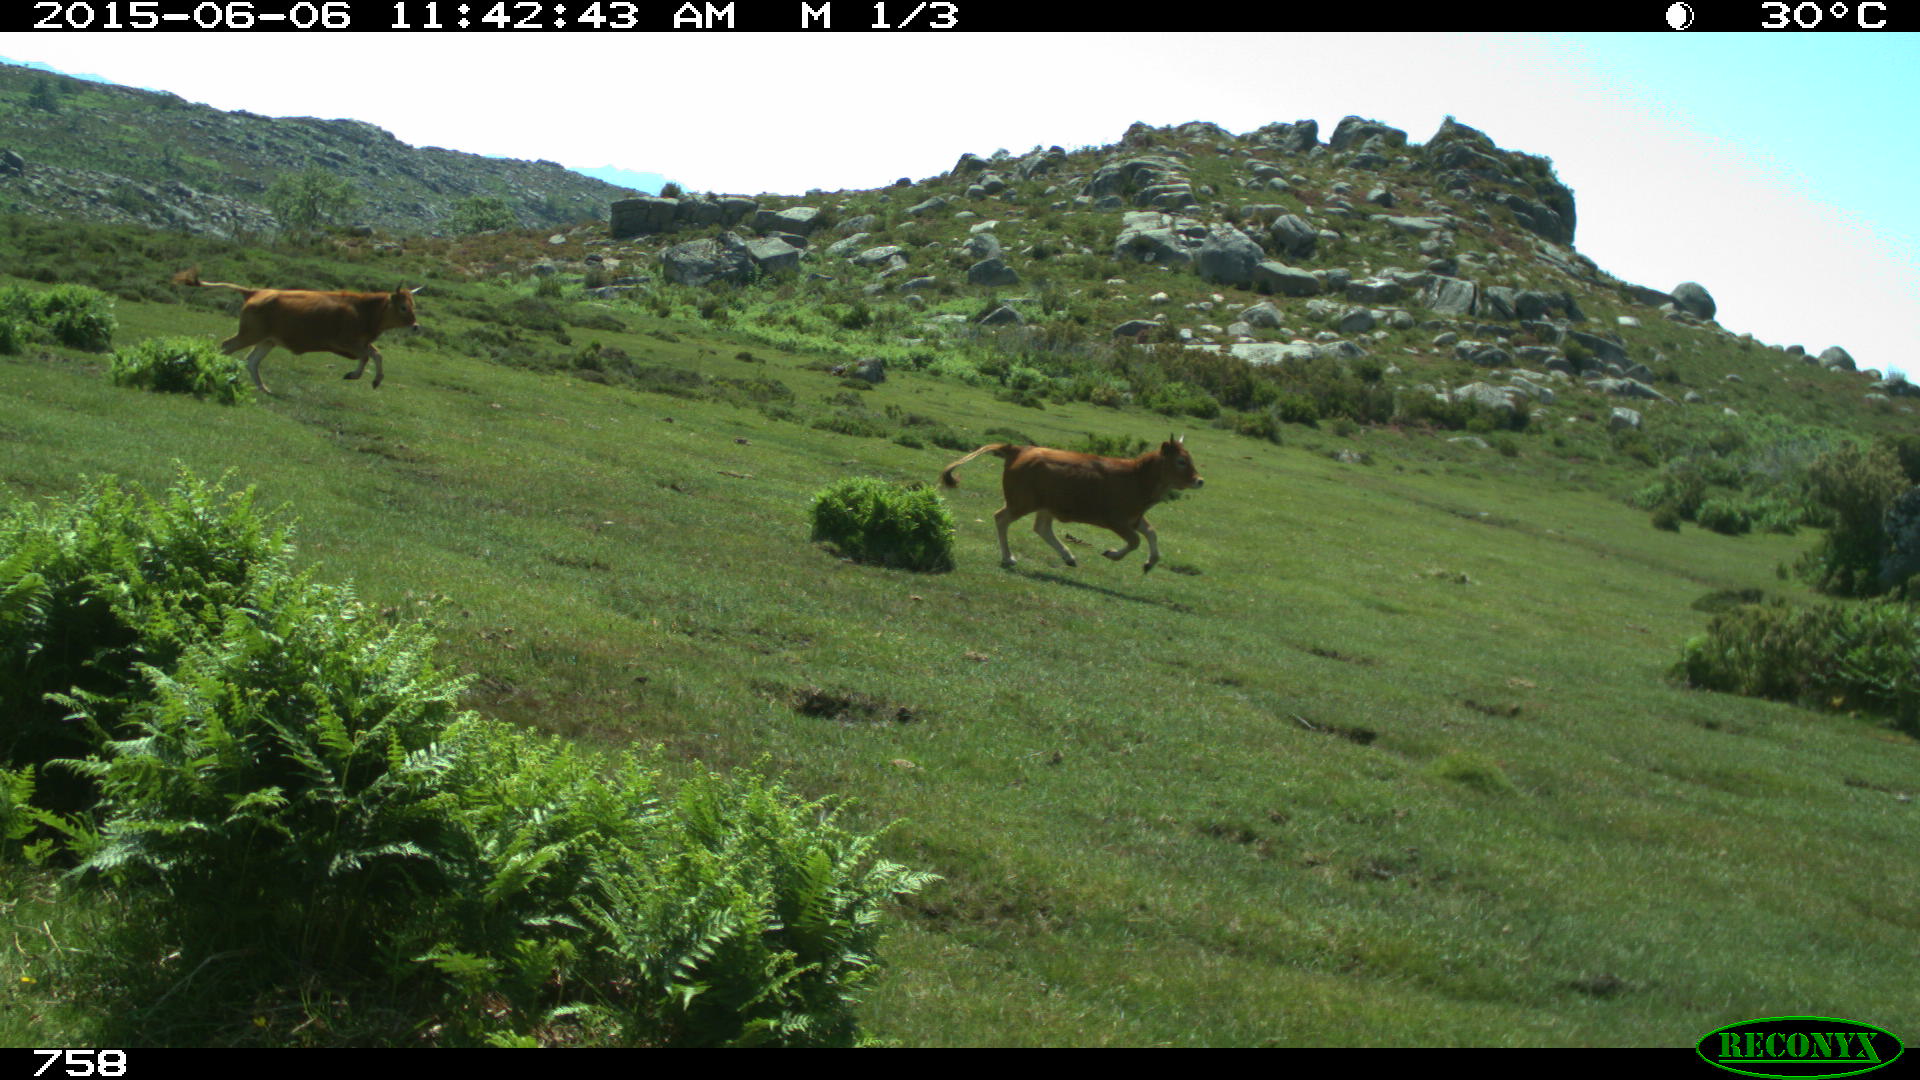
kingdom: Animalia
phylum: Chordata
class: Mammalia
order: Artiodactyla
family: Bovidae
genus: Bos
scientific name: Bos taurus
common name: Domesticated cattle
